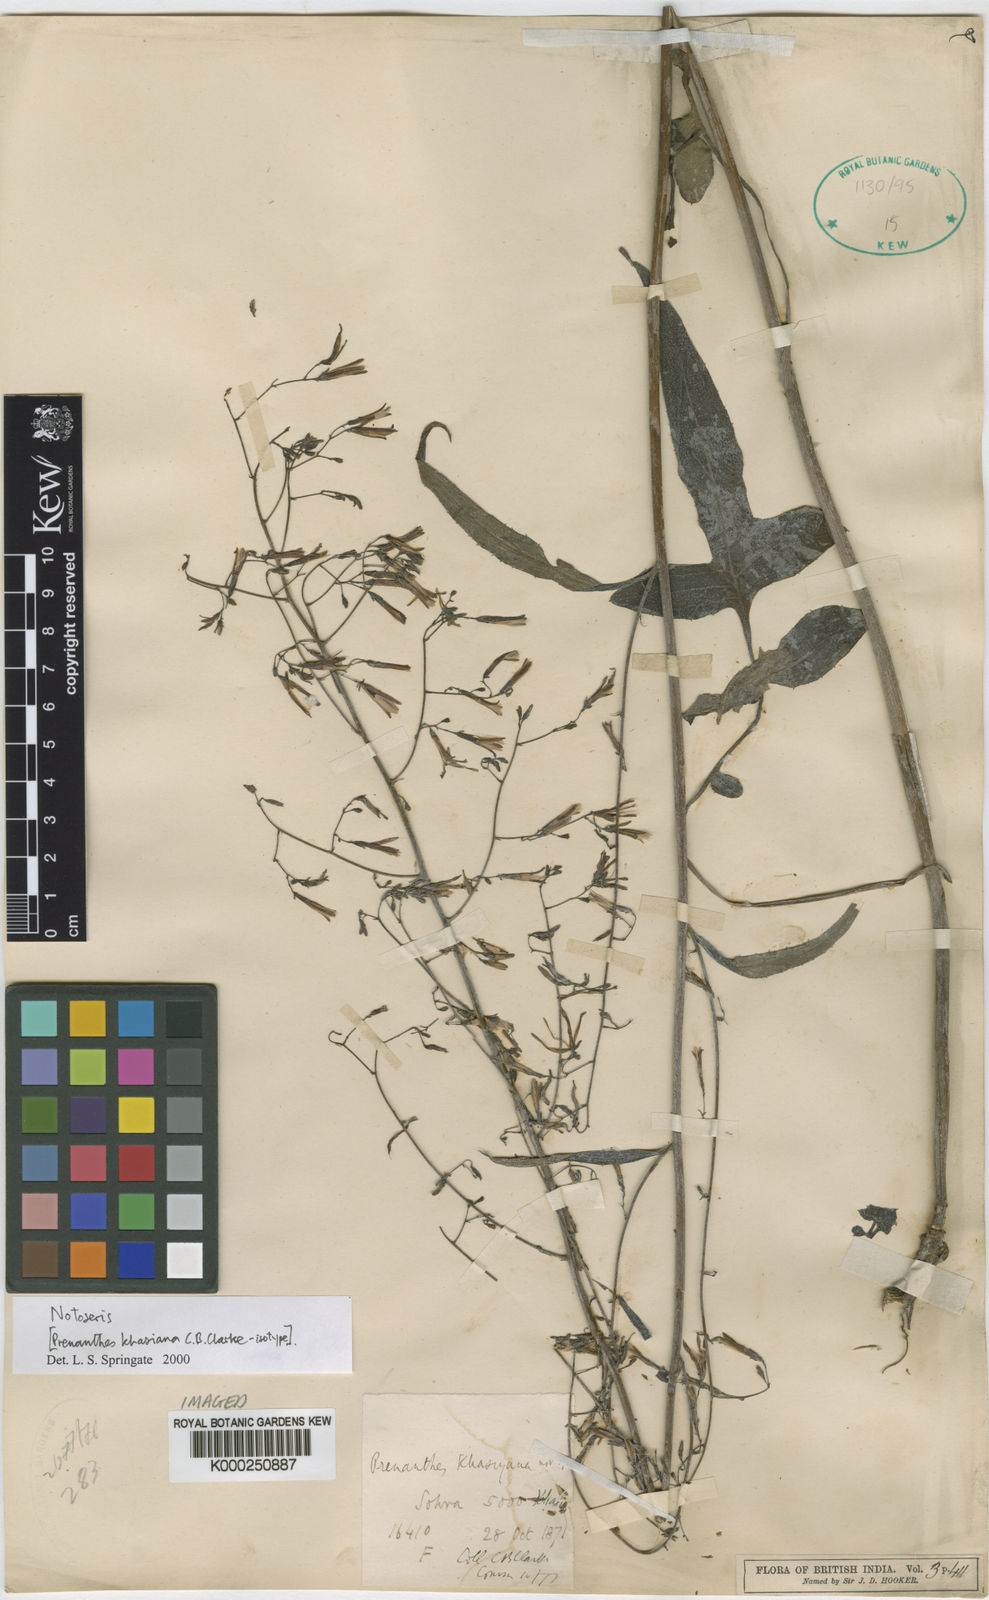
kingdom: Plantae
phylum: Tracheophyta
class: Magnoliopsida
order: Asterales
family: Asteraceae
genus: Notoseris
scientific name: Notoseris khasiana
